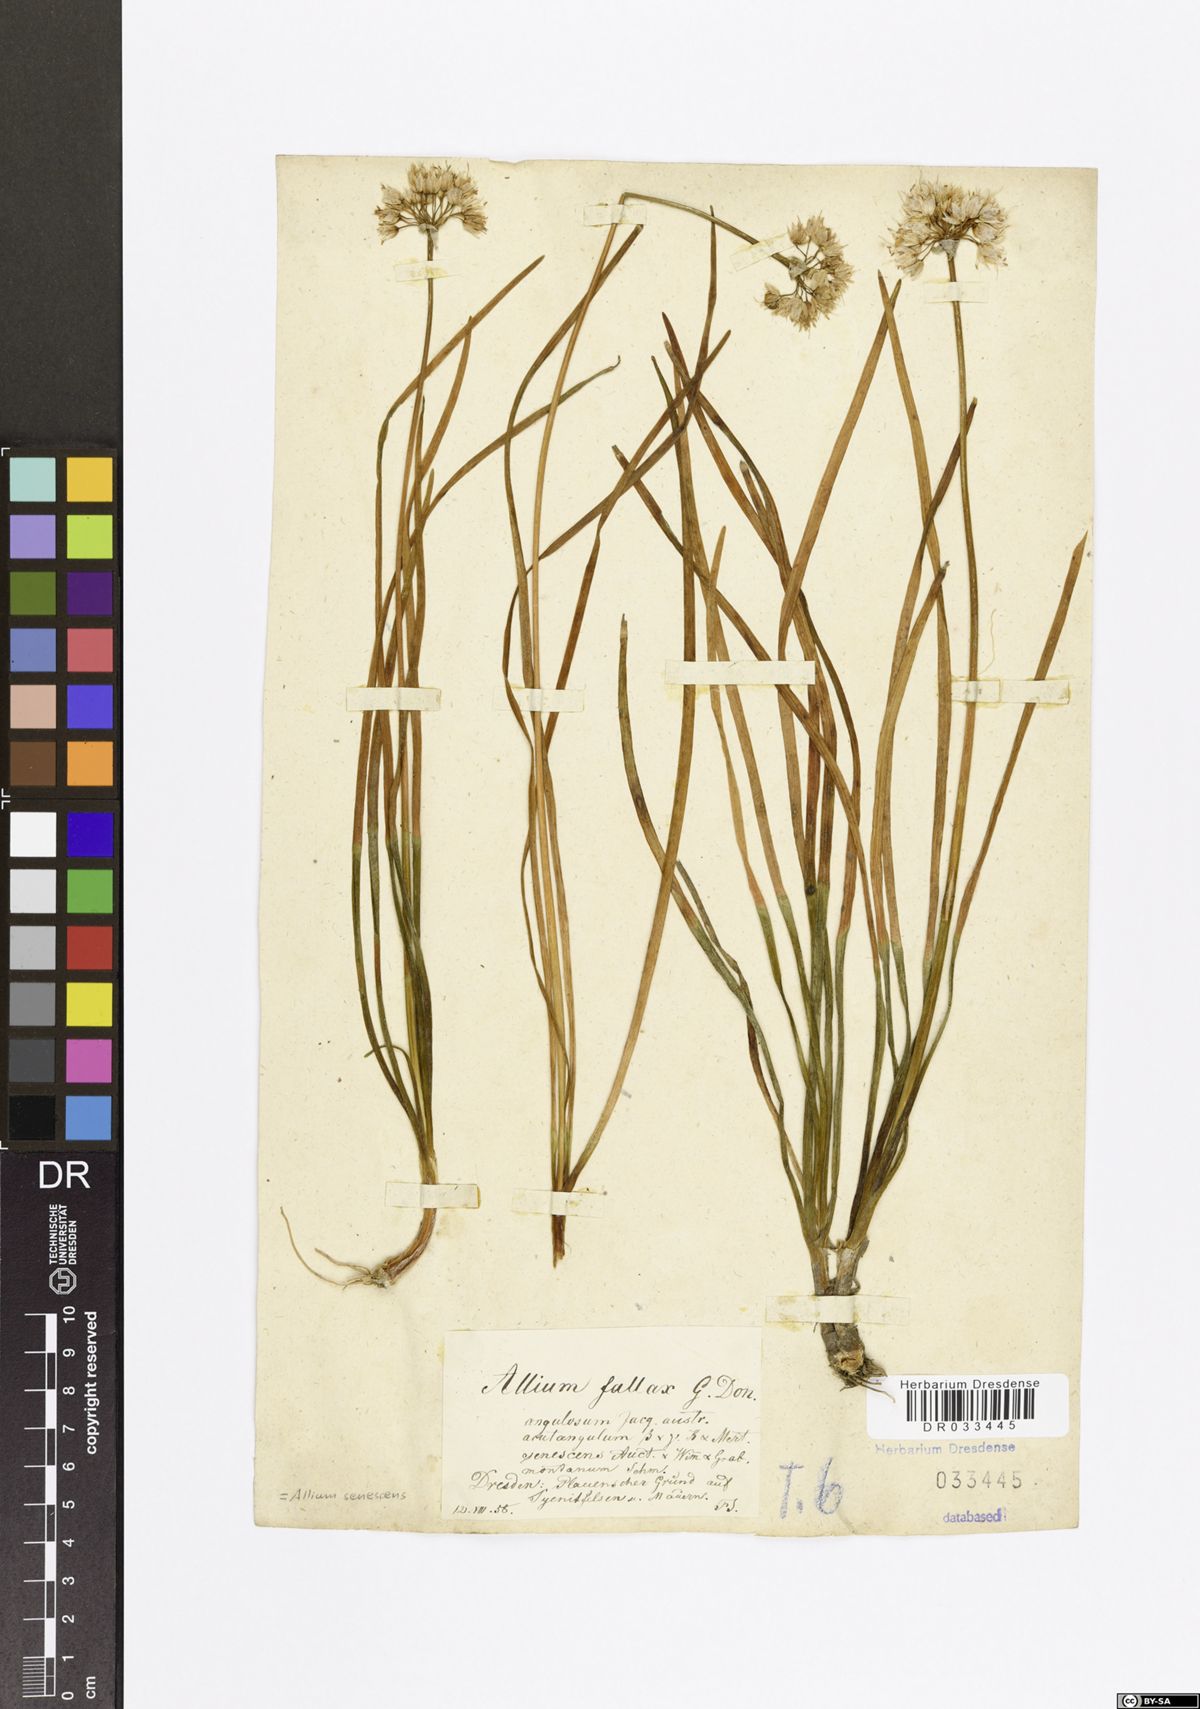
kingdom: Plantae
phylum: Tracheophyta
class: Liliopsida
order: Asparagales
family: Amaryllidaceae
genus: Allium
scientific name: Allium senescens
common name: German garlic
